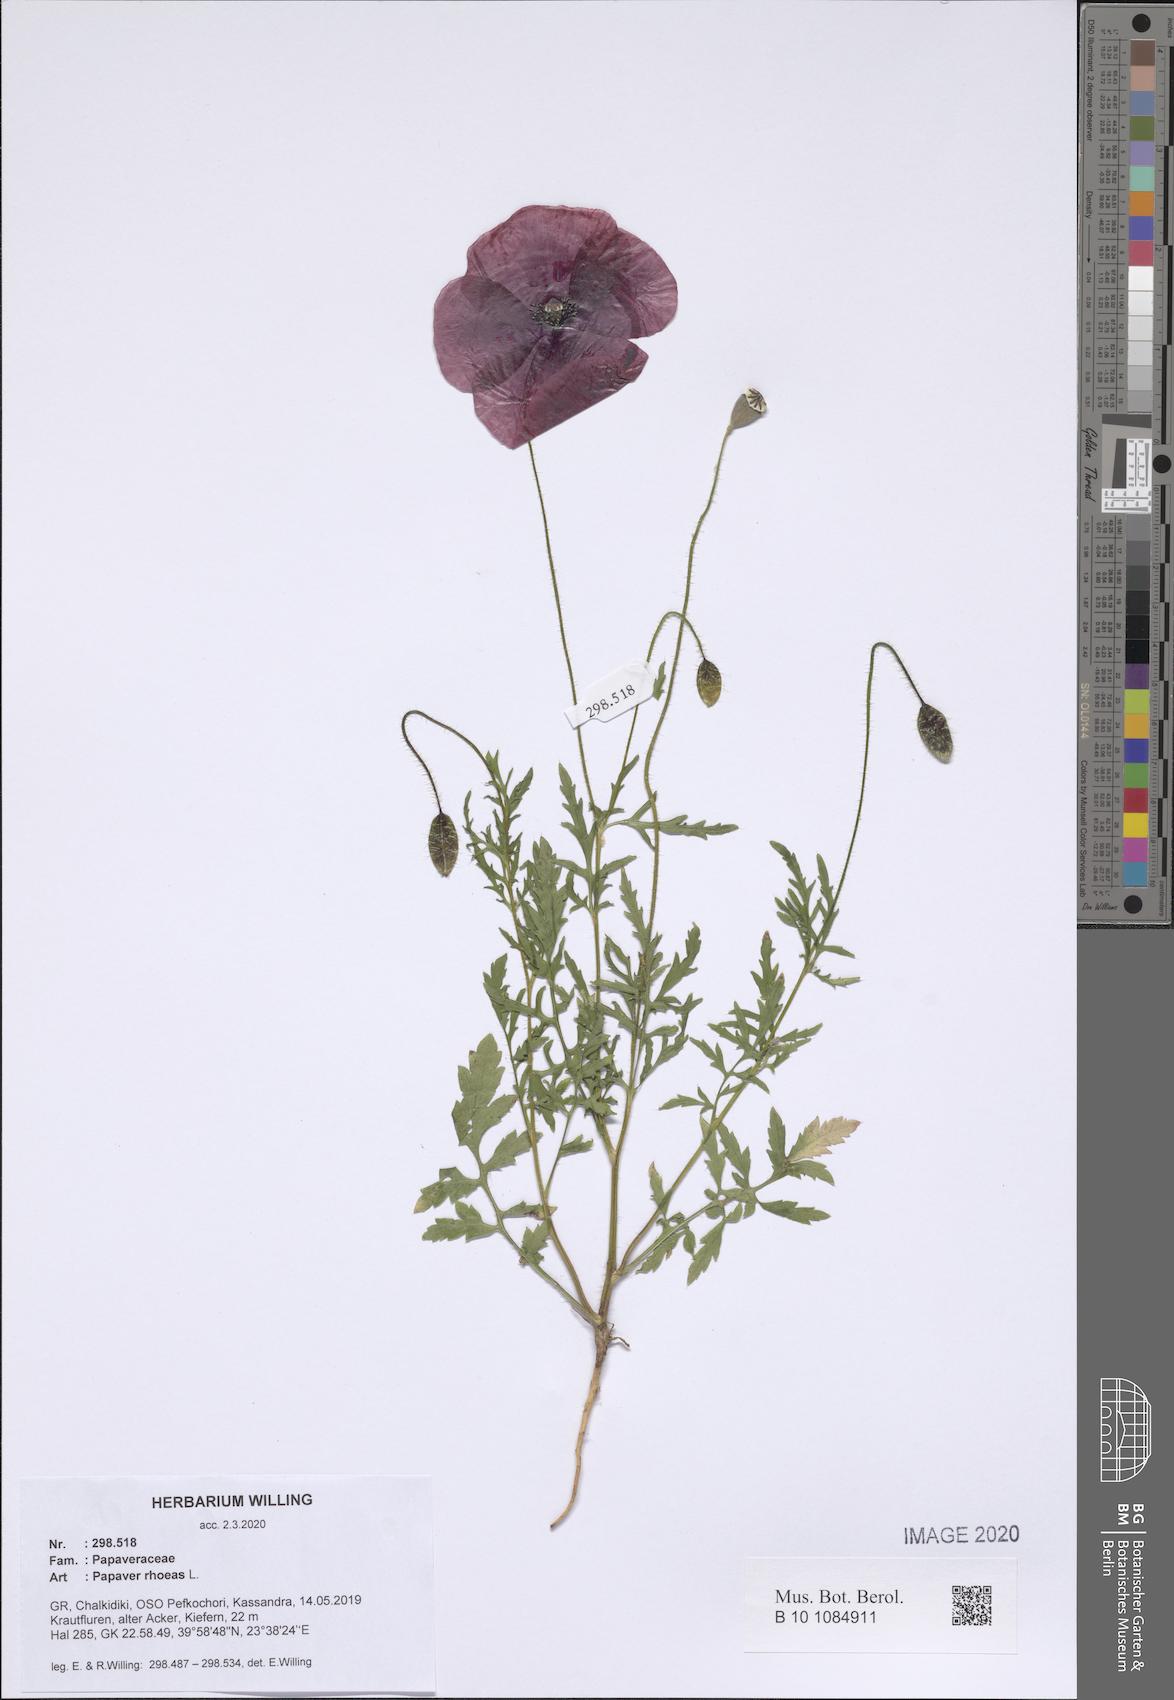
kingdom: Plantae
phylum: Tracheophyta
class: Magnoliopsida
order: Ranunculales
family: Papaveraceae
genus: Papaver
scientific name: Papaver rhoeas
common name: Corn poppy
